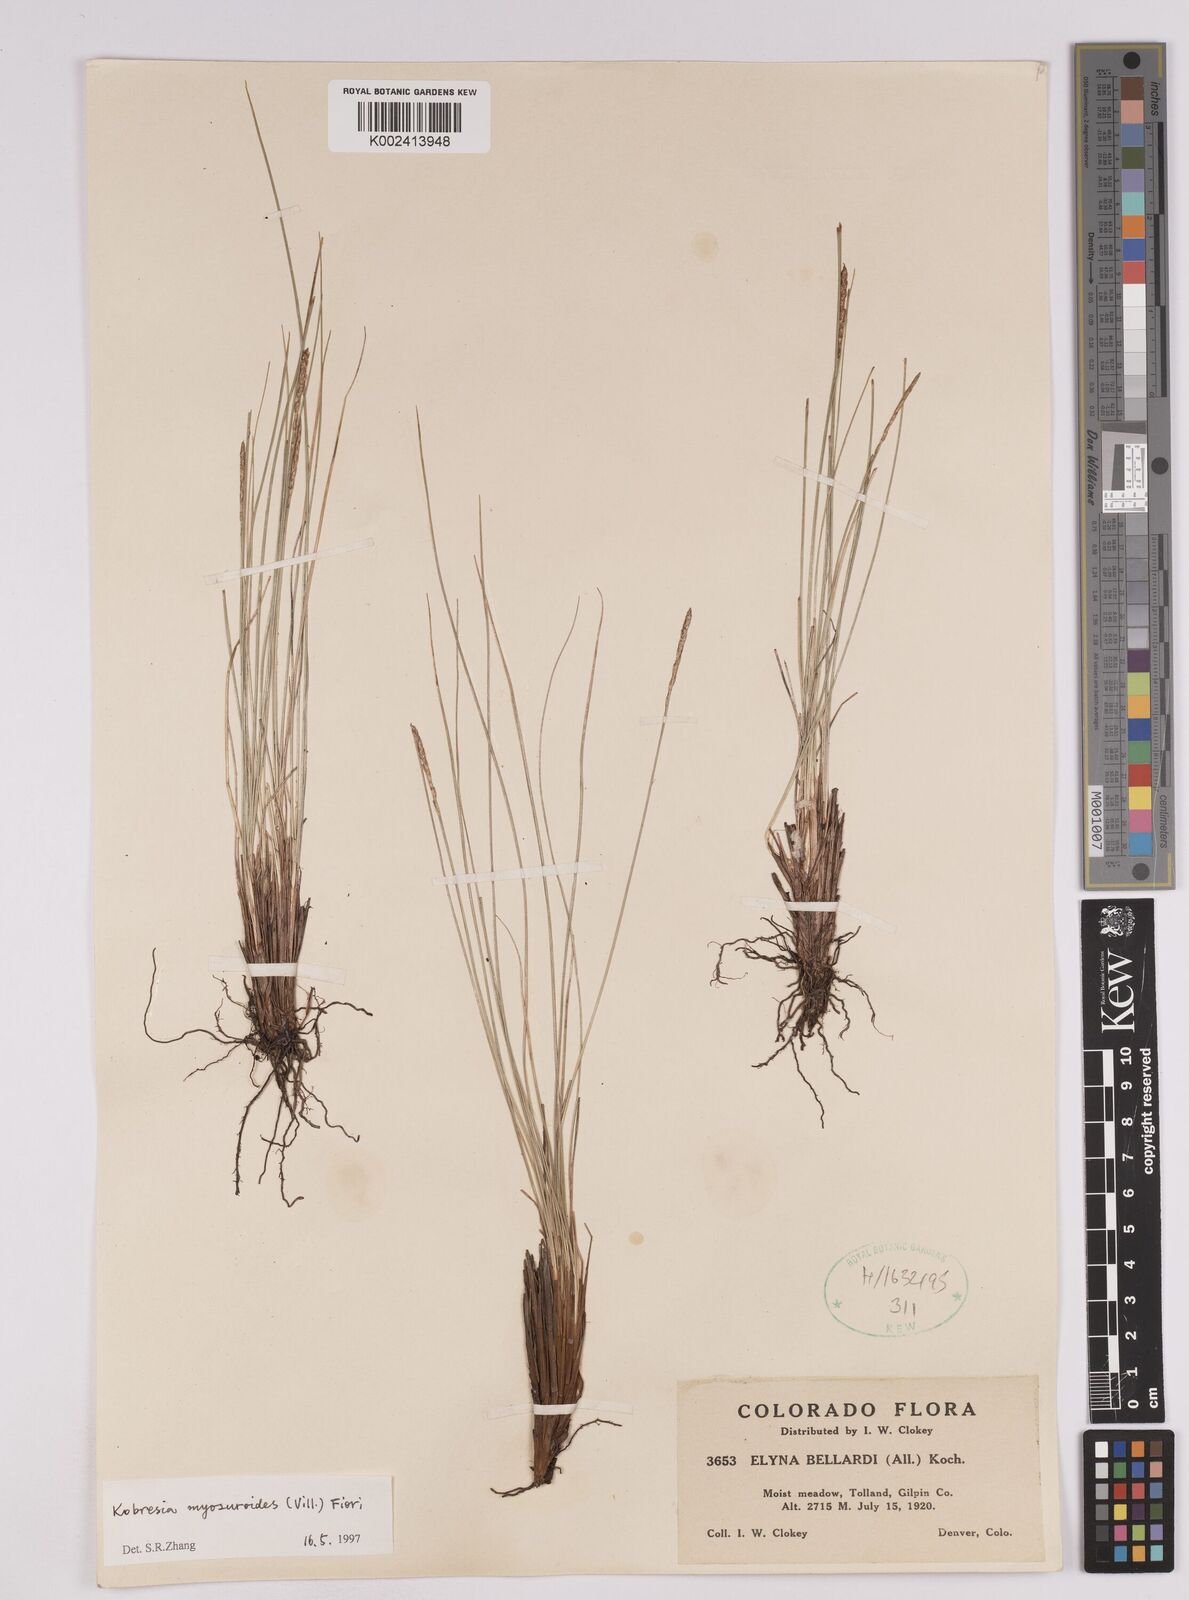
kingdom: Plantae
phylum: Tracheophyta
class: Liliopsida
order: Poales
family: Cyperaceae
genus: Carex
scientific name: Carex myosuroides
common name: Bellard's bog sedge
